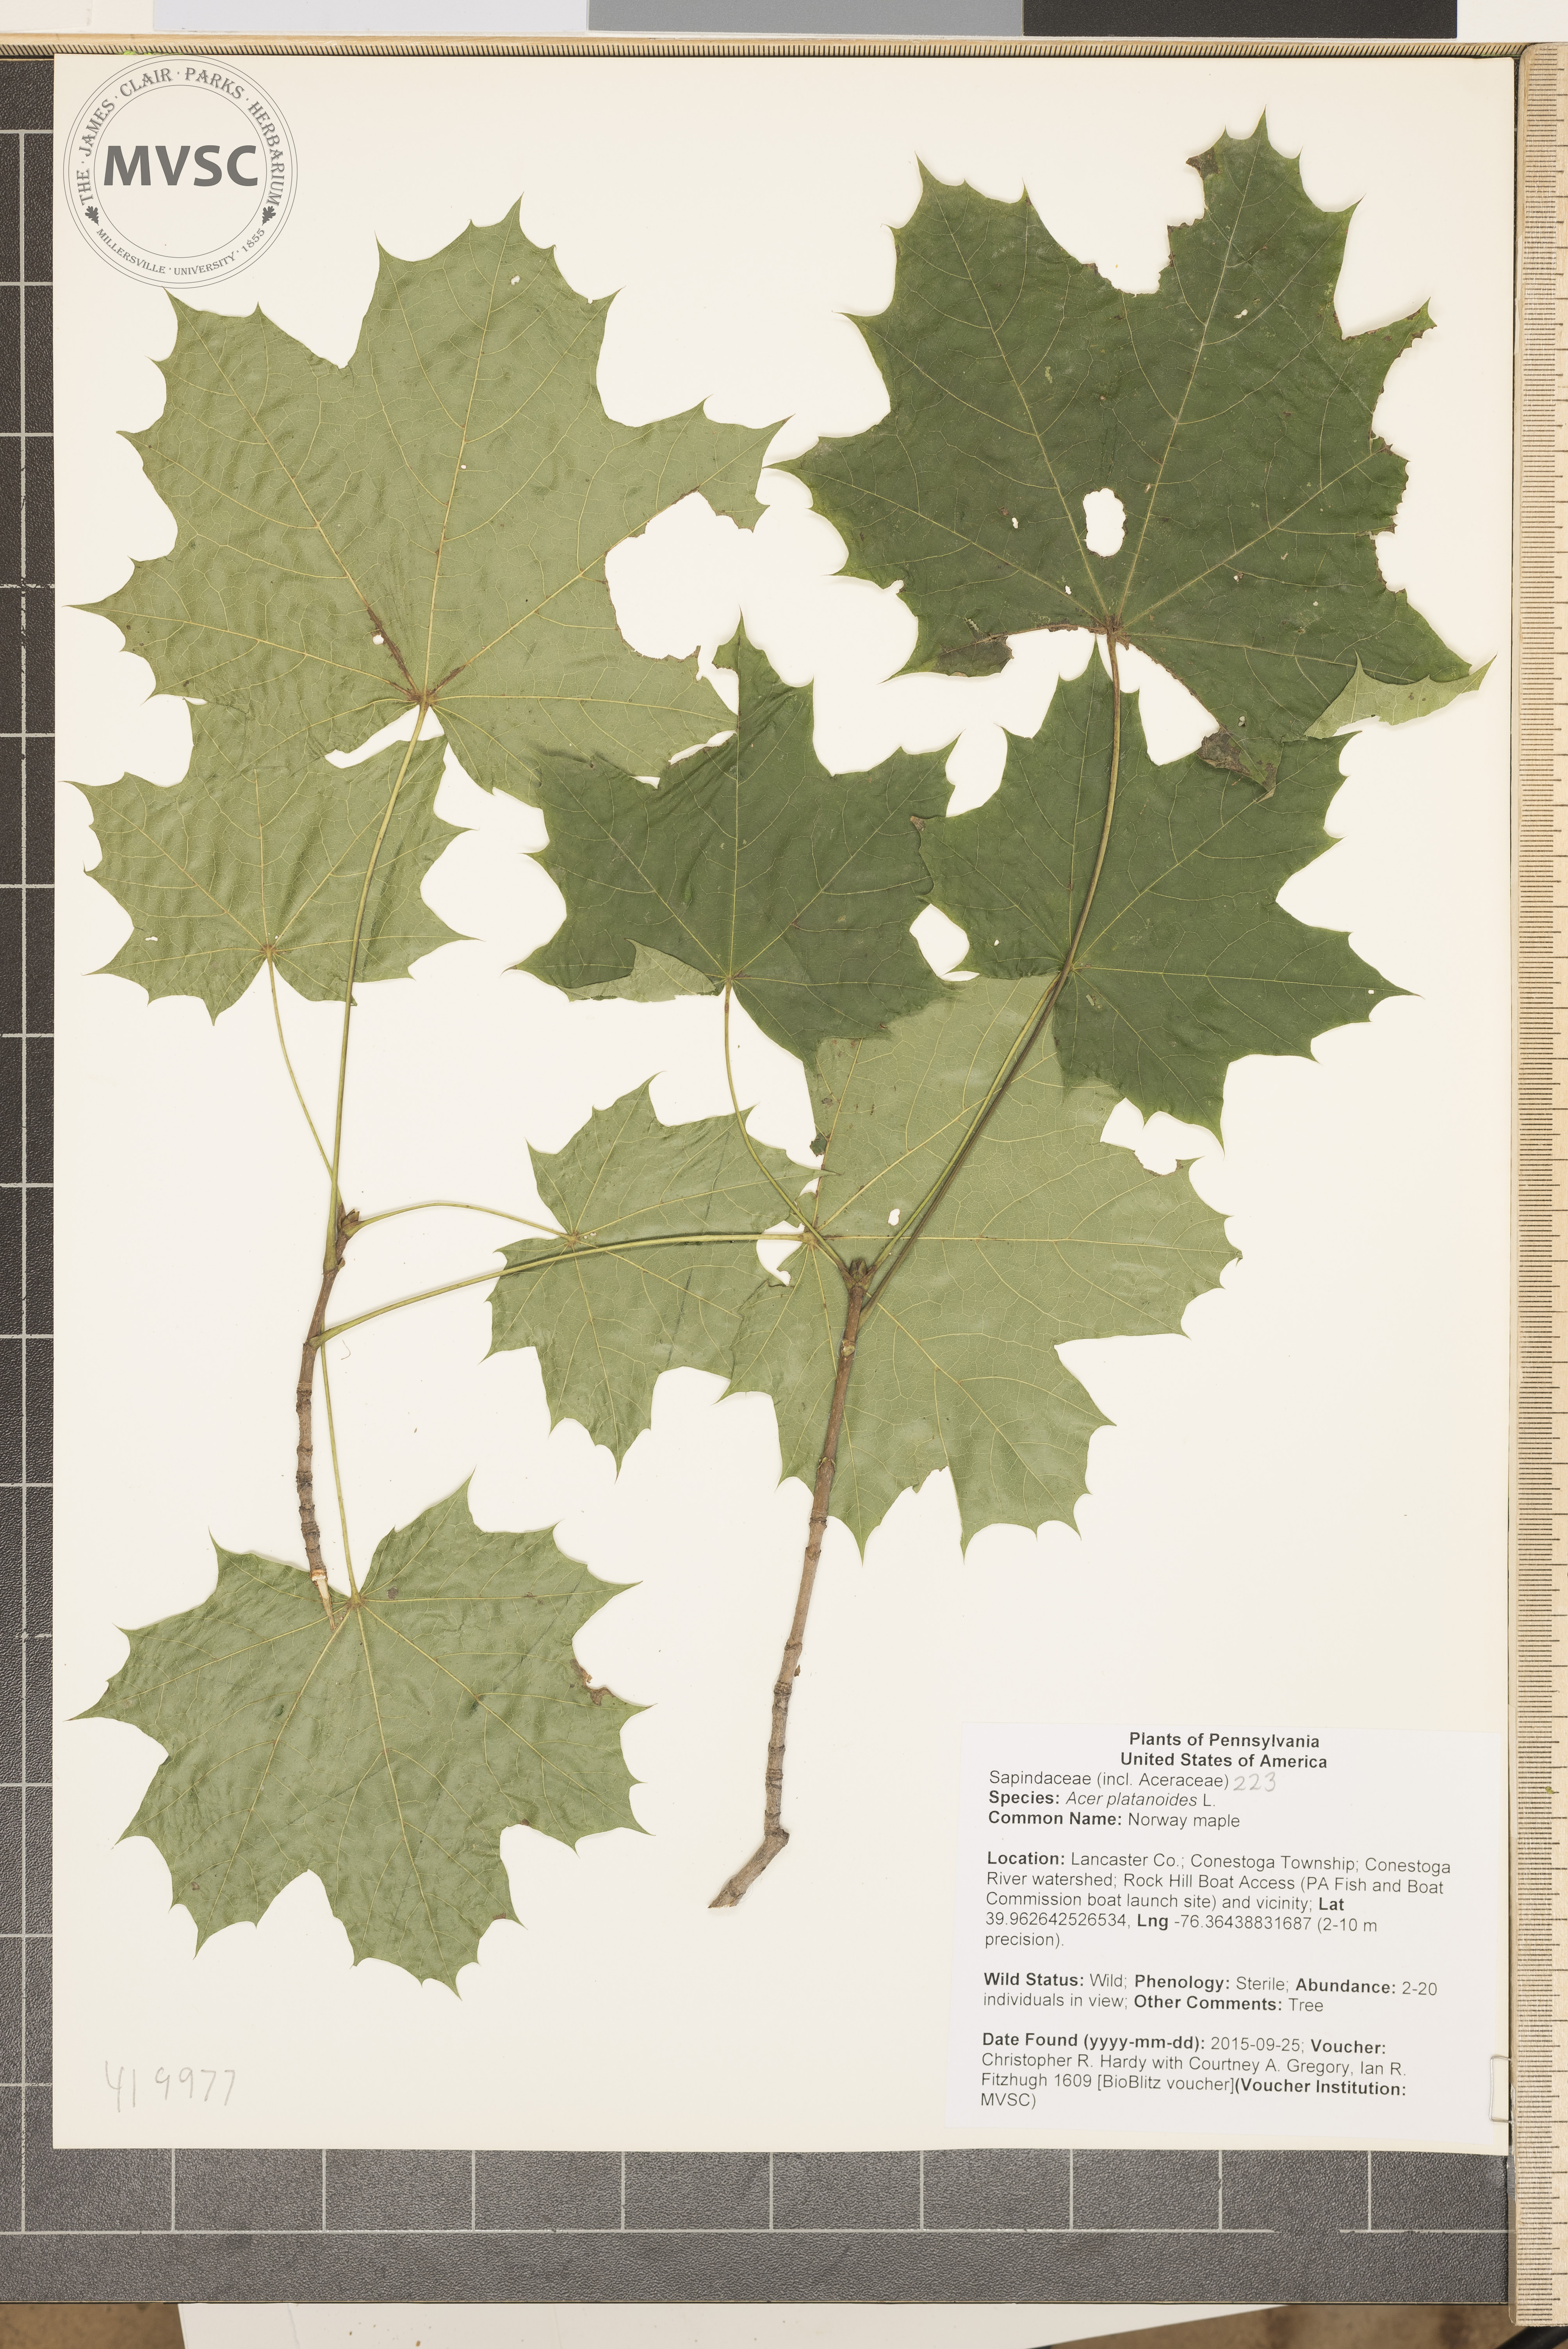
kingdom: Plantae
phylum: Tracheophyta
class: Magnoliopsida
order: Sapindales
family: Sapindaceae
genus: Acer
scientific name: Acer platanoides
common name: Norway maple
